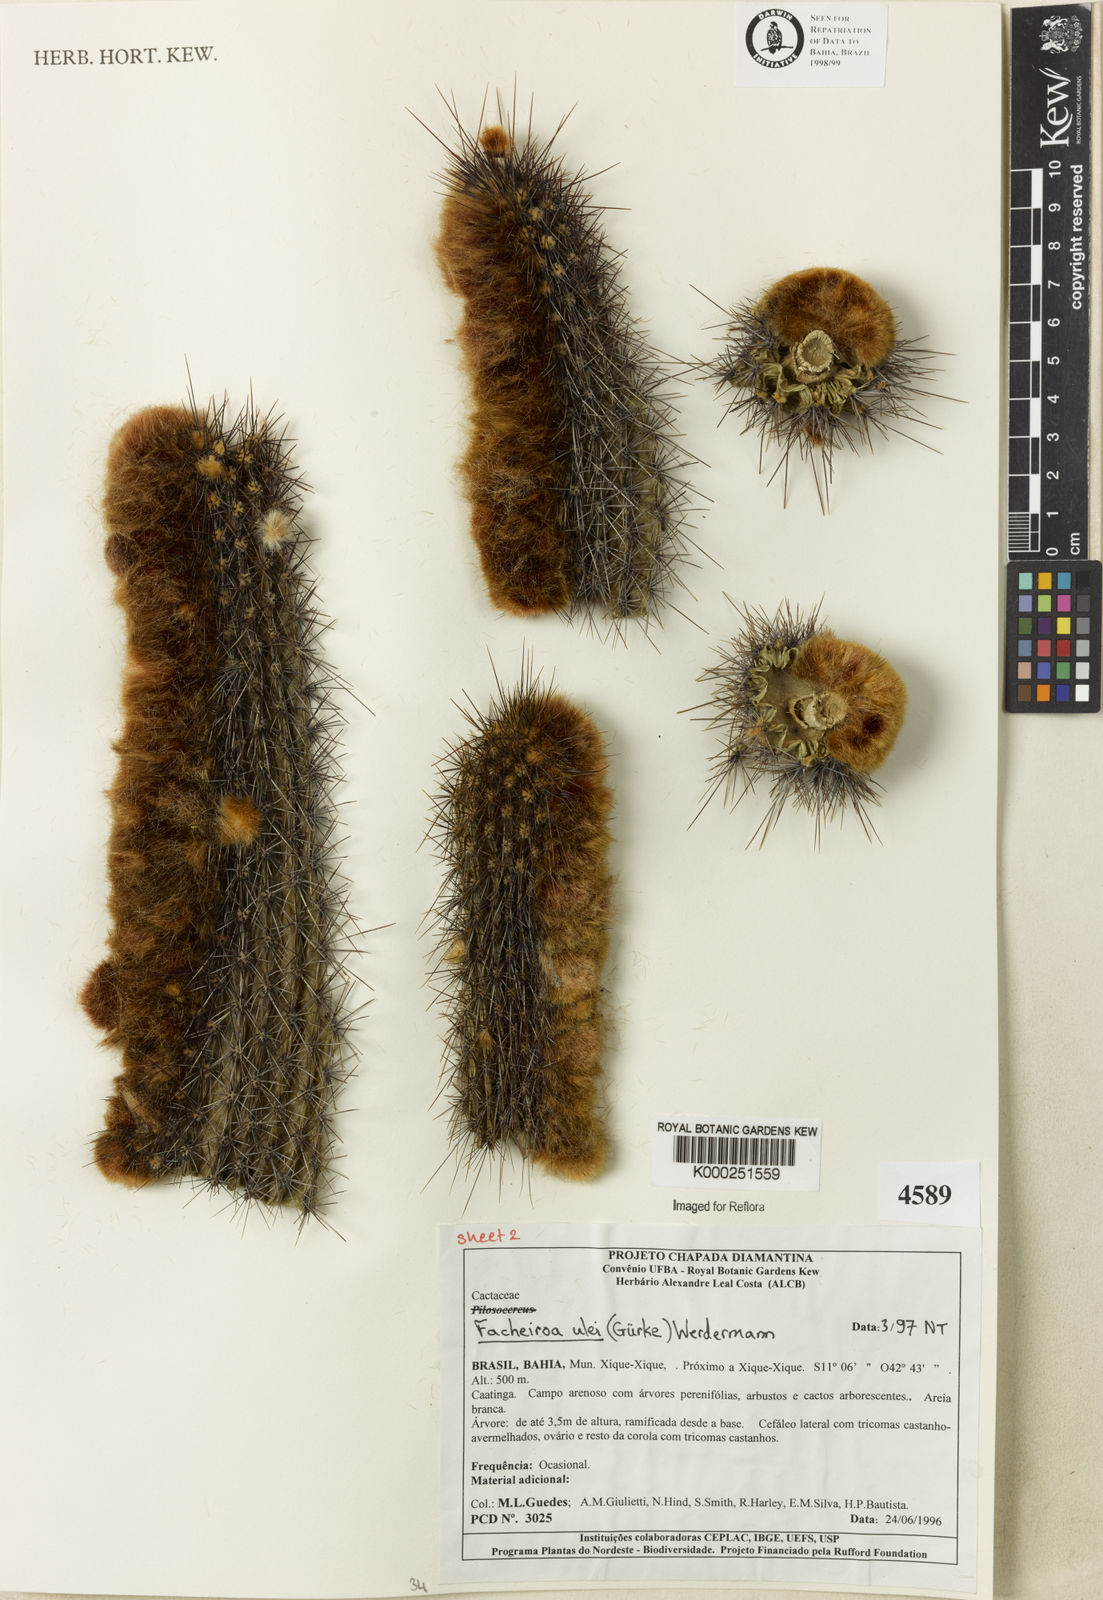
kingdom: Plantae
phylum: Tracheophyta
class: Magnoliopsida
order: Caryophyllales
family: Cactaceae
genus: Facheiroa
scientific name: Facheiroa ulei
